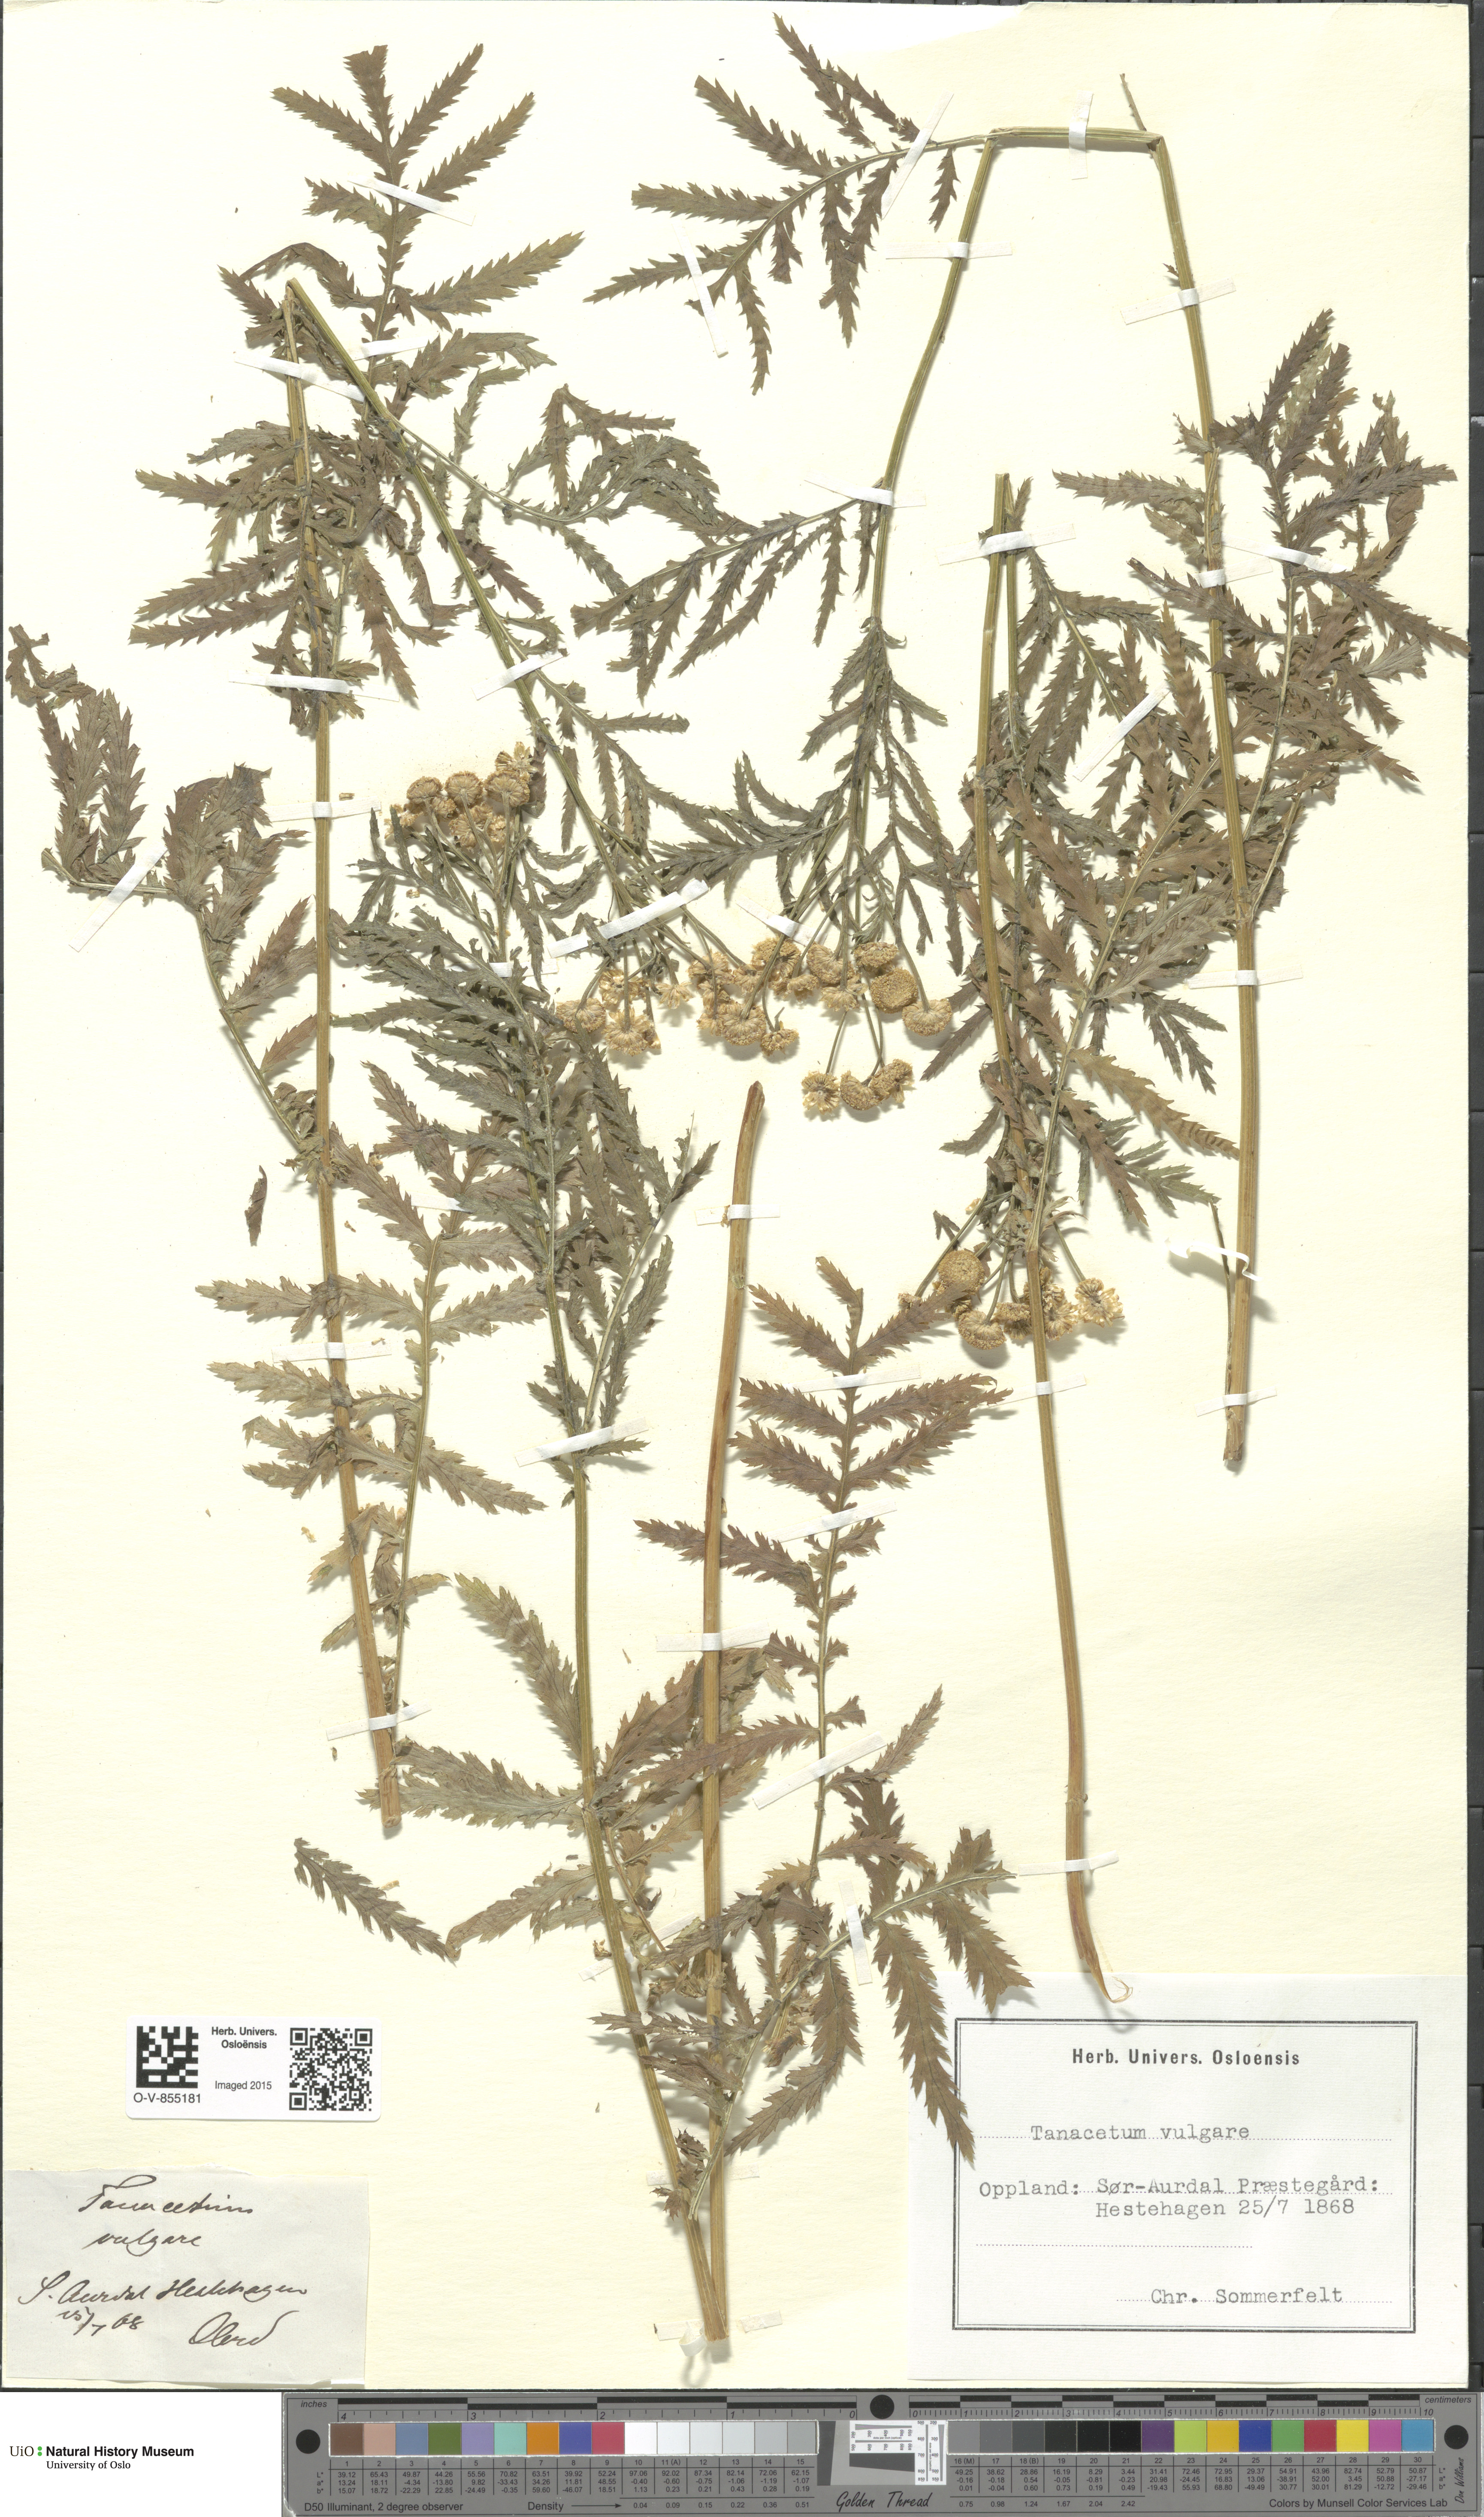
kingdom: Plantae
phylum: Tracheophyta
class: Magnoliopsida
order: Asterales
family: Asteraceae
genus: Tanacetum
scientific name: Tanacetum vulgare
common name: Common tansy
